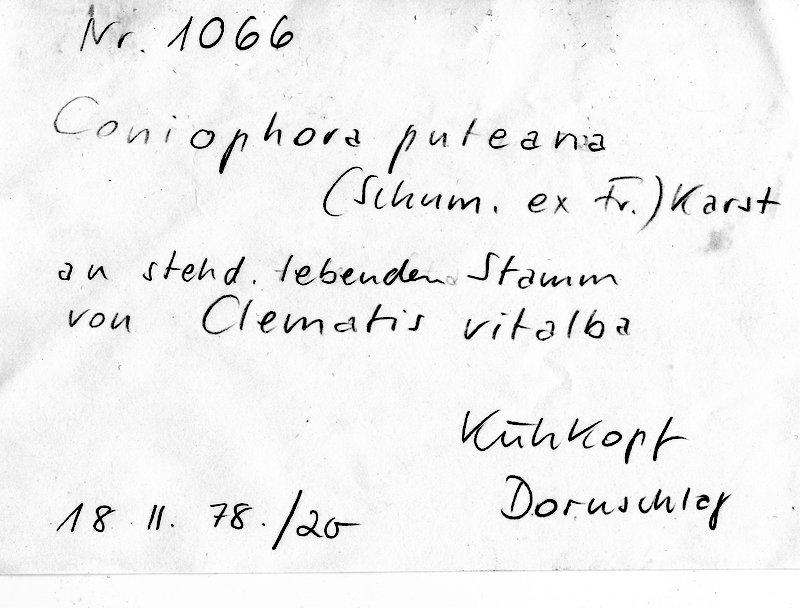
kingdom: Plantae
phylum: Tracheophyta
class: Magnoliopsida
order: Ranunculales
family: Ranunculaceae
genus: Clematis
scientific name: Clematis vitalba
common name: Evergreen clematis
